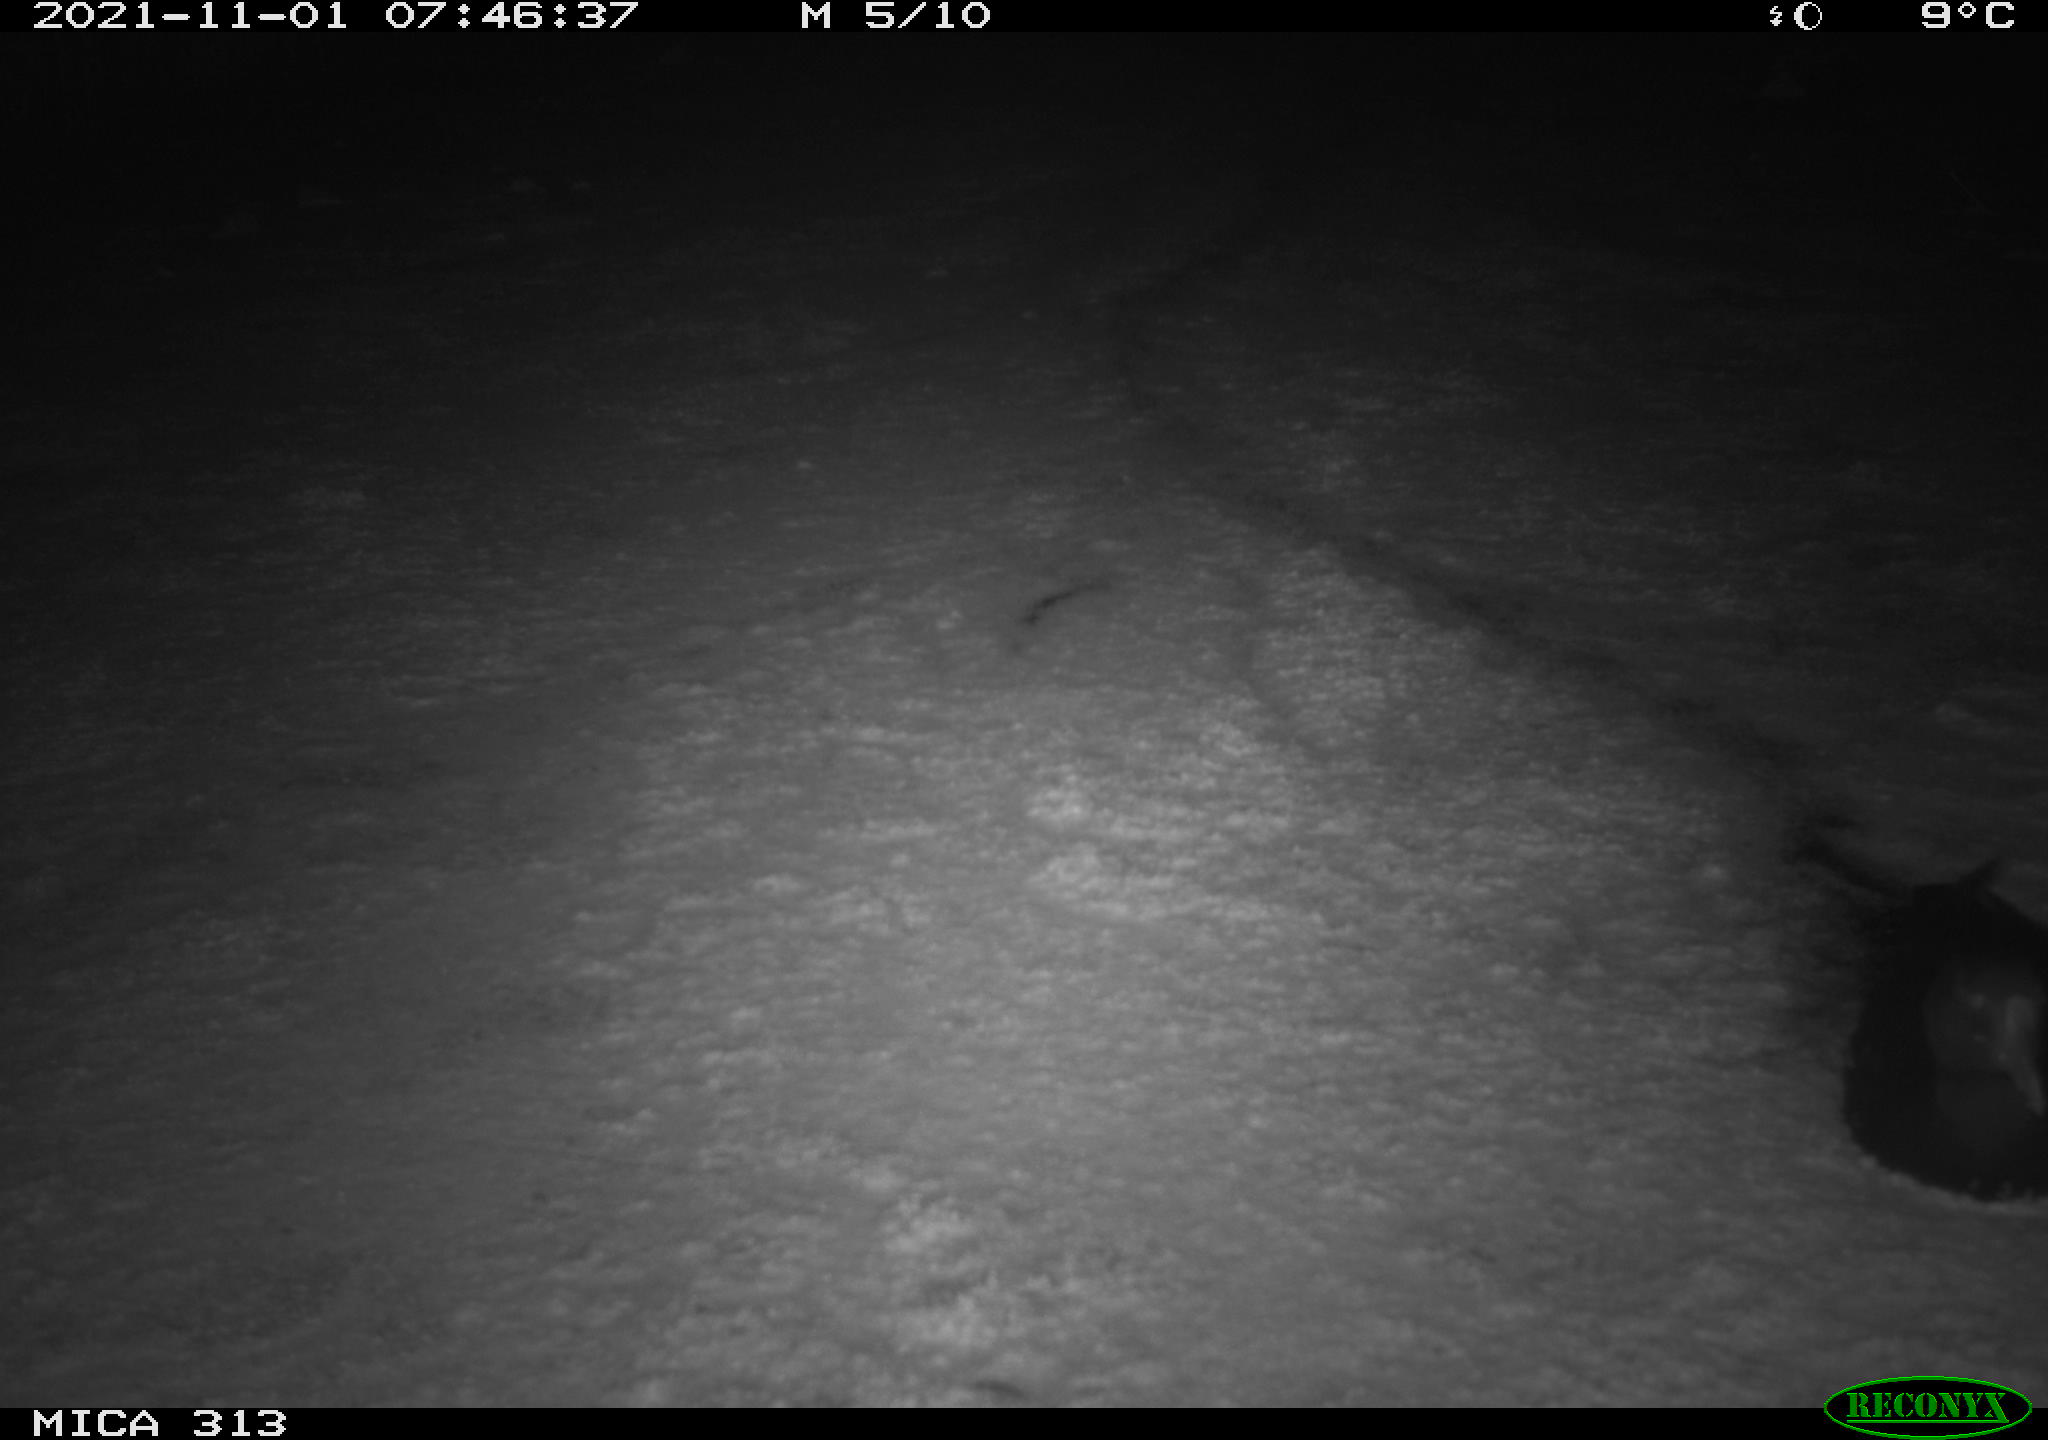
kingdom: Animalia
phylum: Chordata
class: Aves
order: Gruiformes
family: Rallidae
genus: Fulica
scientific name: Fulica atra
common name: Eurasian coot
